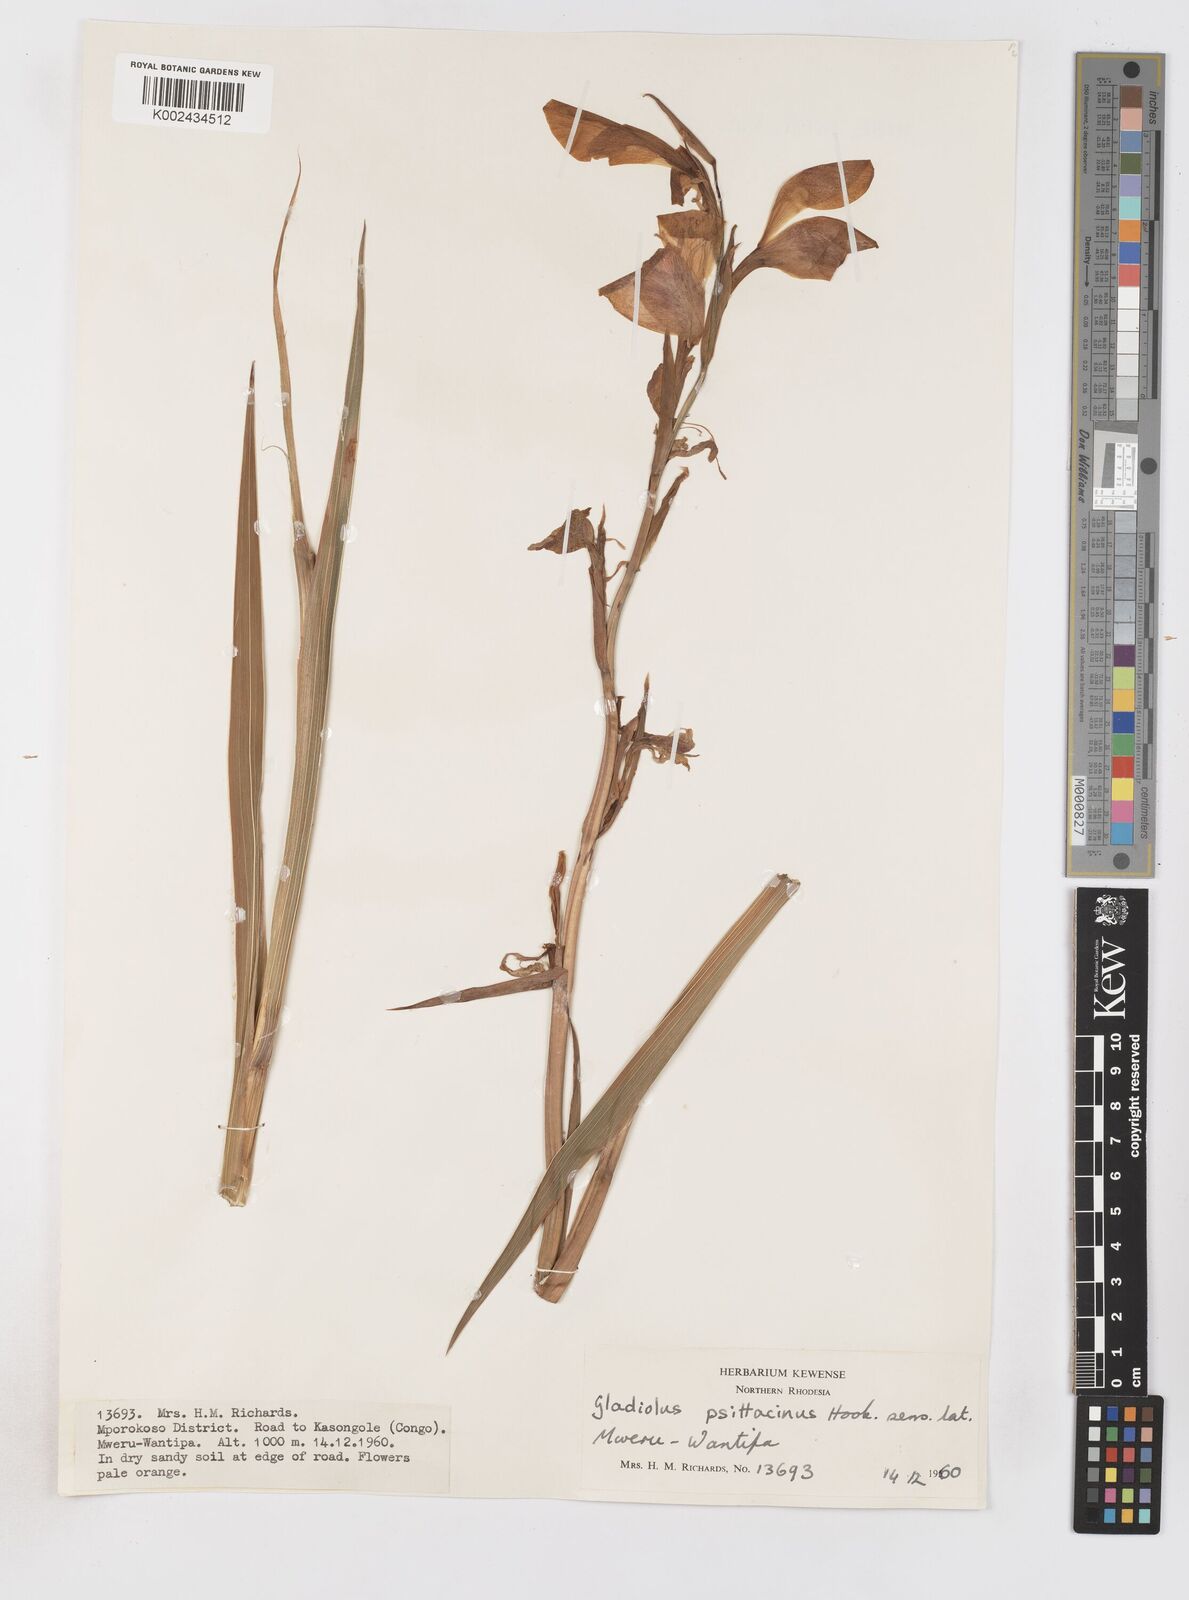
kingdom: Plantae
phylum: Tracheophyta
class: Liliopsida
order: Asparagales
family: Iridaceae
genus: Gladiolus
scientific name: Gladiolus dalenii
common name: Cornflag
